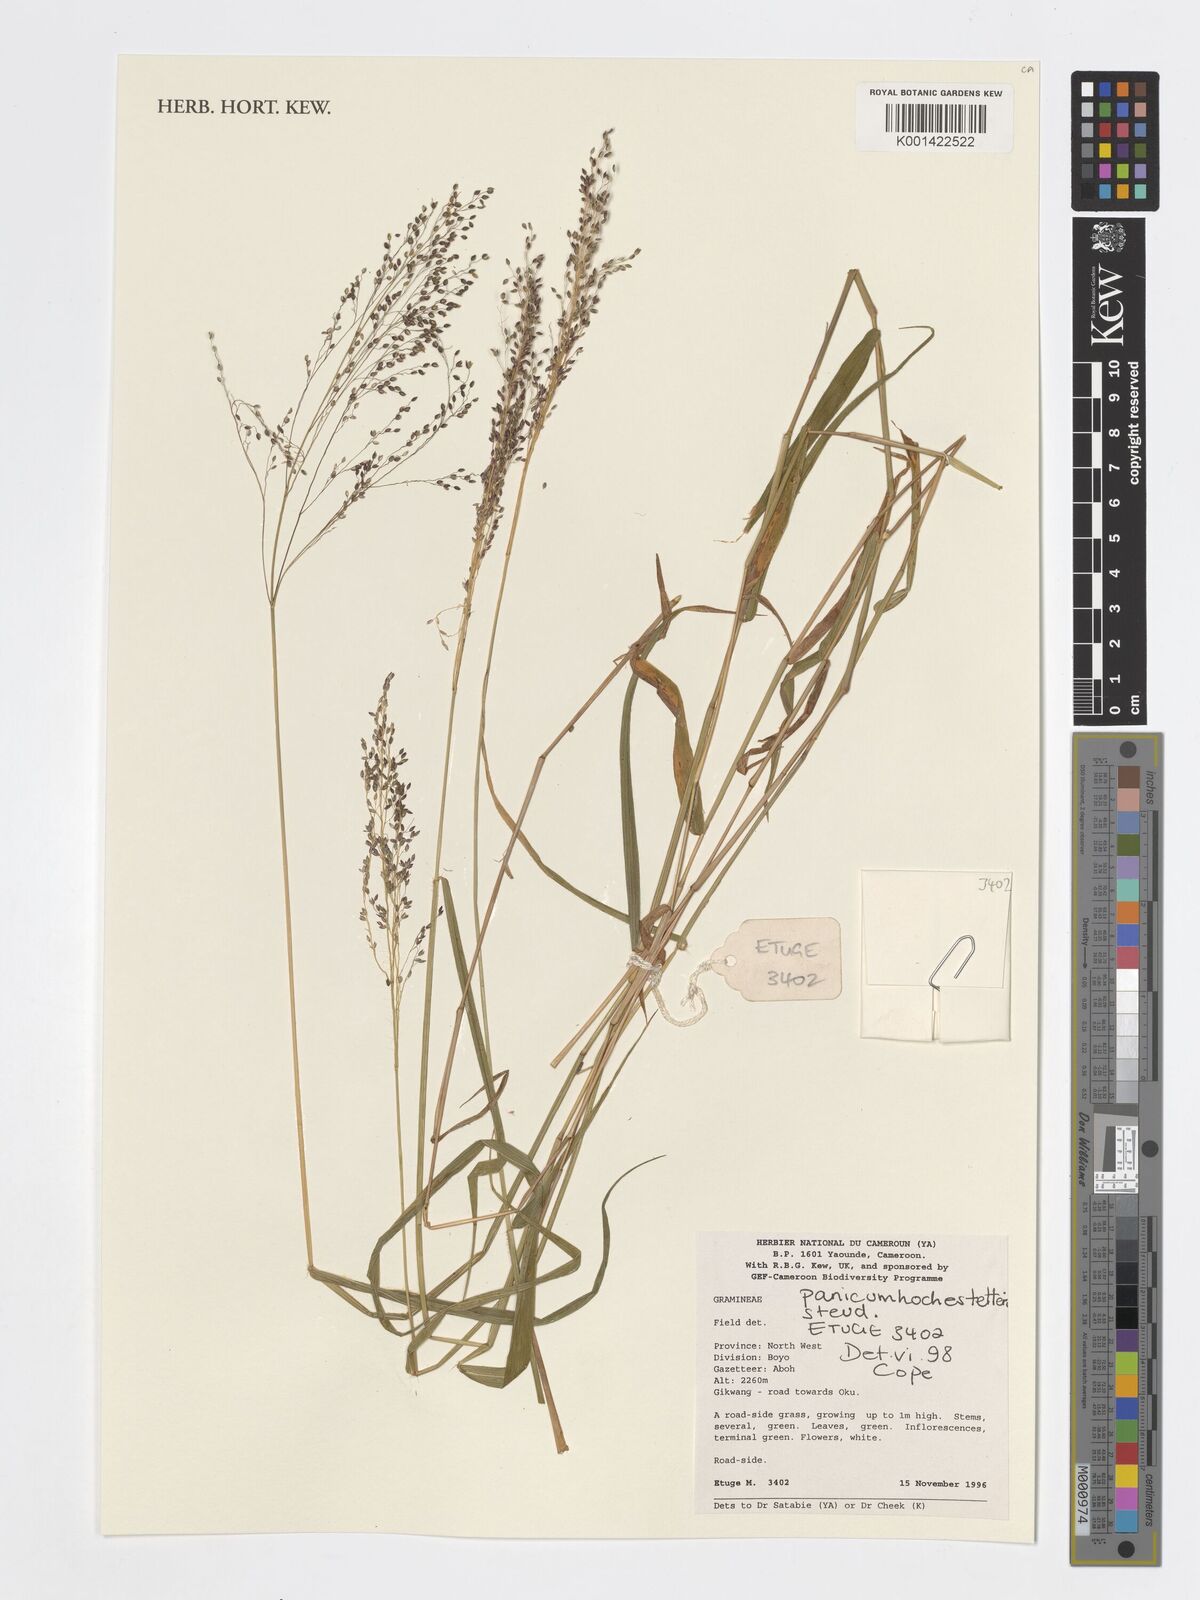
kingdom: Plantae
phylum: Tracheophyta
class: Liliopsida
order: Poales
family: Poaceae
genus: Panicum
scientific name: Panicum hochstetteri
